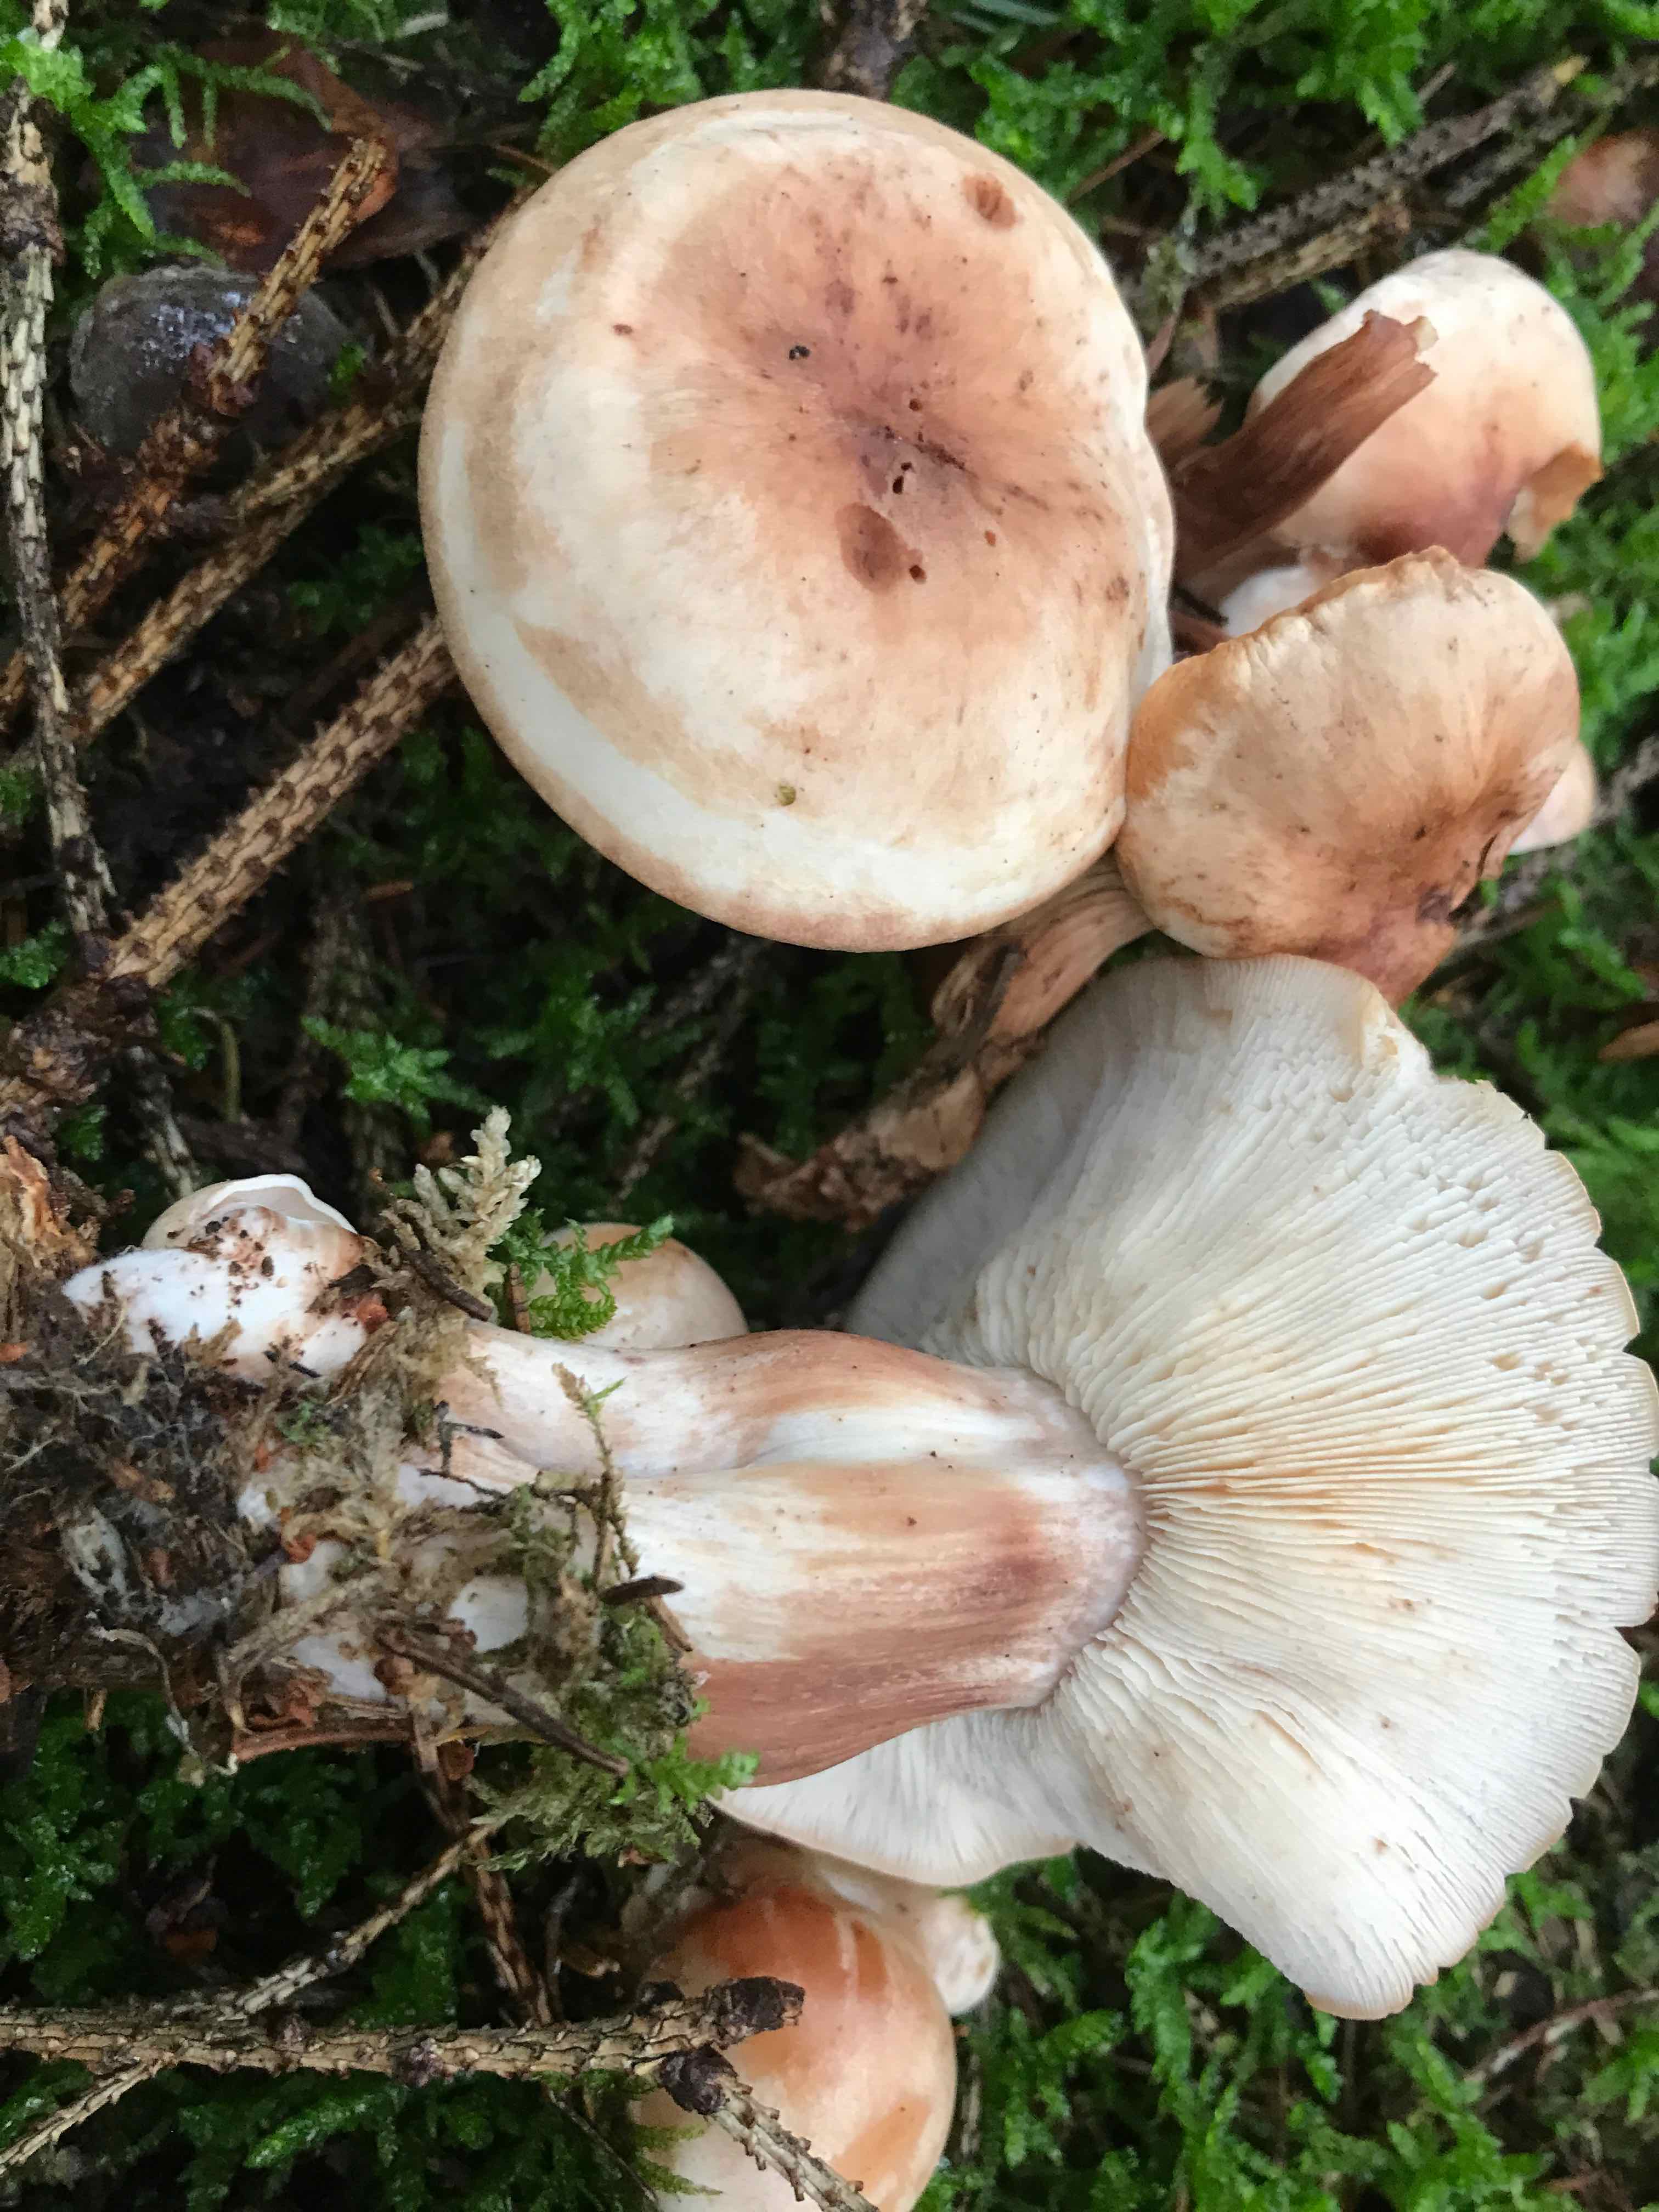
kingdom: Fungi
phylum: Basidiomycota
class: Agaricomycetes
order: Agaricales
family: Omphalotaceae
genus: Rhodocollybia
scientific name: Rhodocollybia maculata
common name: plettet fladhat
